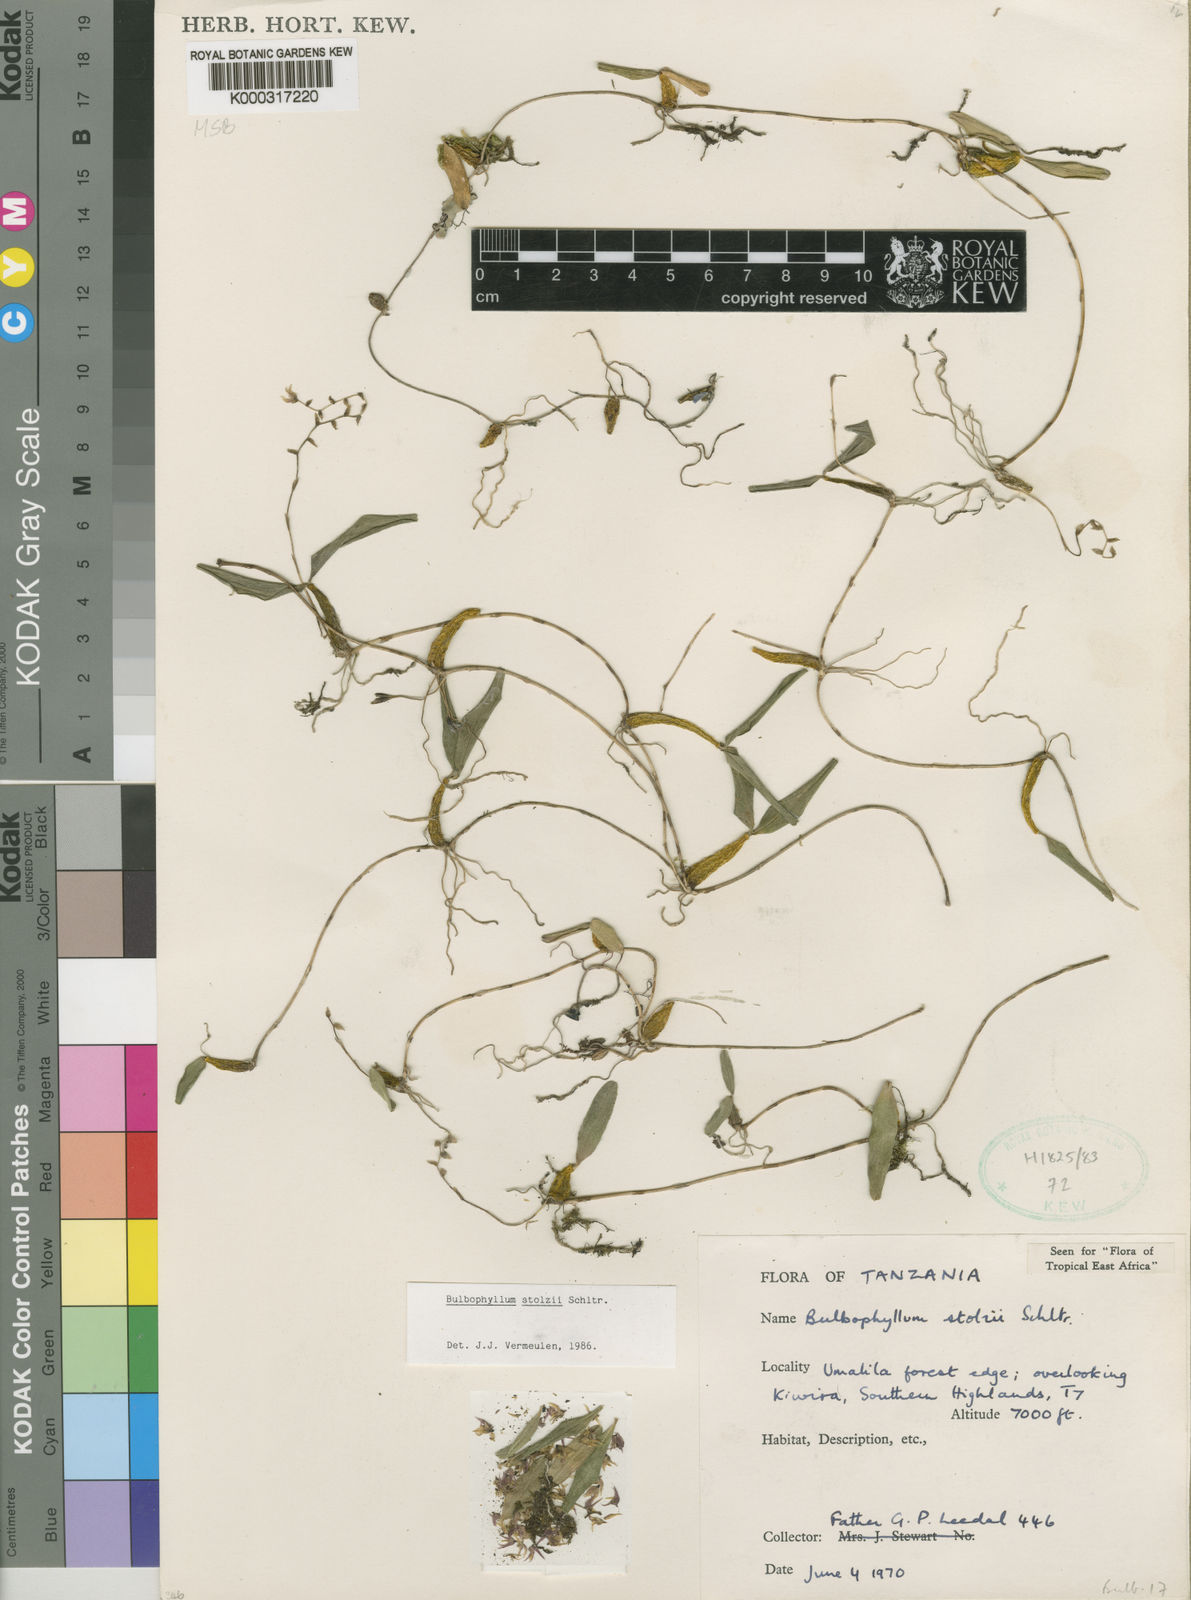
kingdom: Plantae
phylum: Tracheophyta
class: Liliopsida
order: Asparagales
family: Orchidaceae
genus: Bulbophyllum
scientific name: Bulbophyllum stolzii
